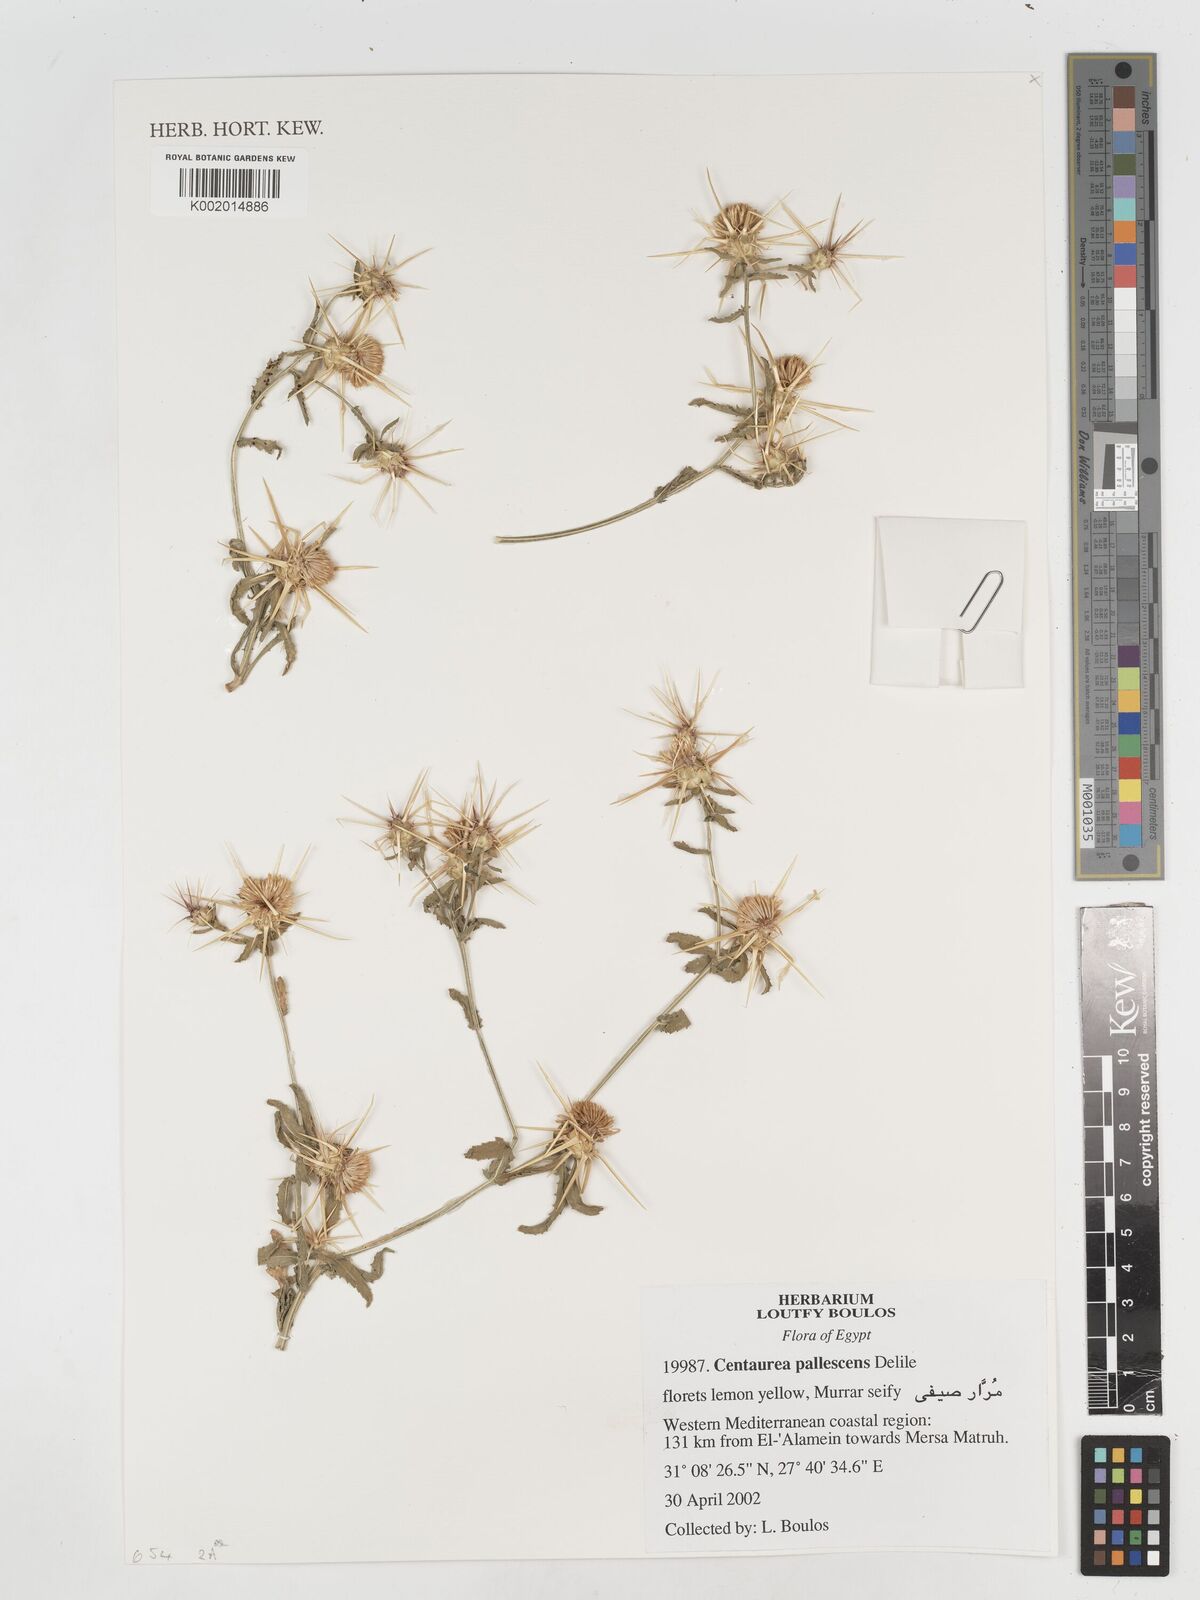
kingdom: Plantae
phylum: Tracheophyta
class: Magnoliopsida
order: Asterales
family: Asteraceae
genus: Centaurea
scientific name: Centaurea pallescens
